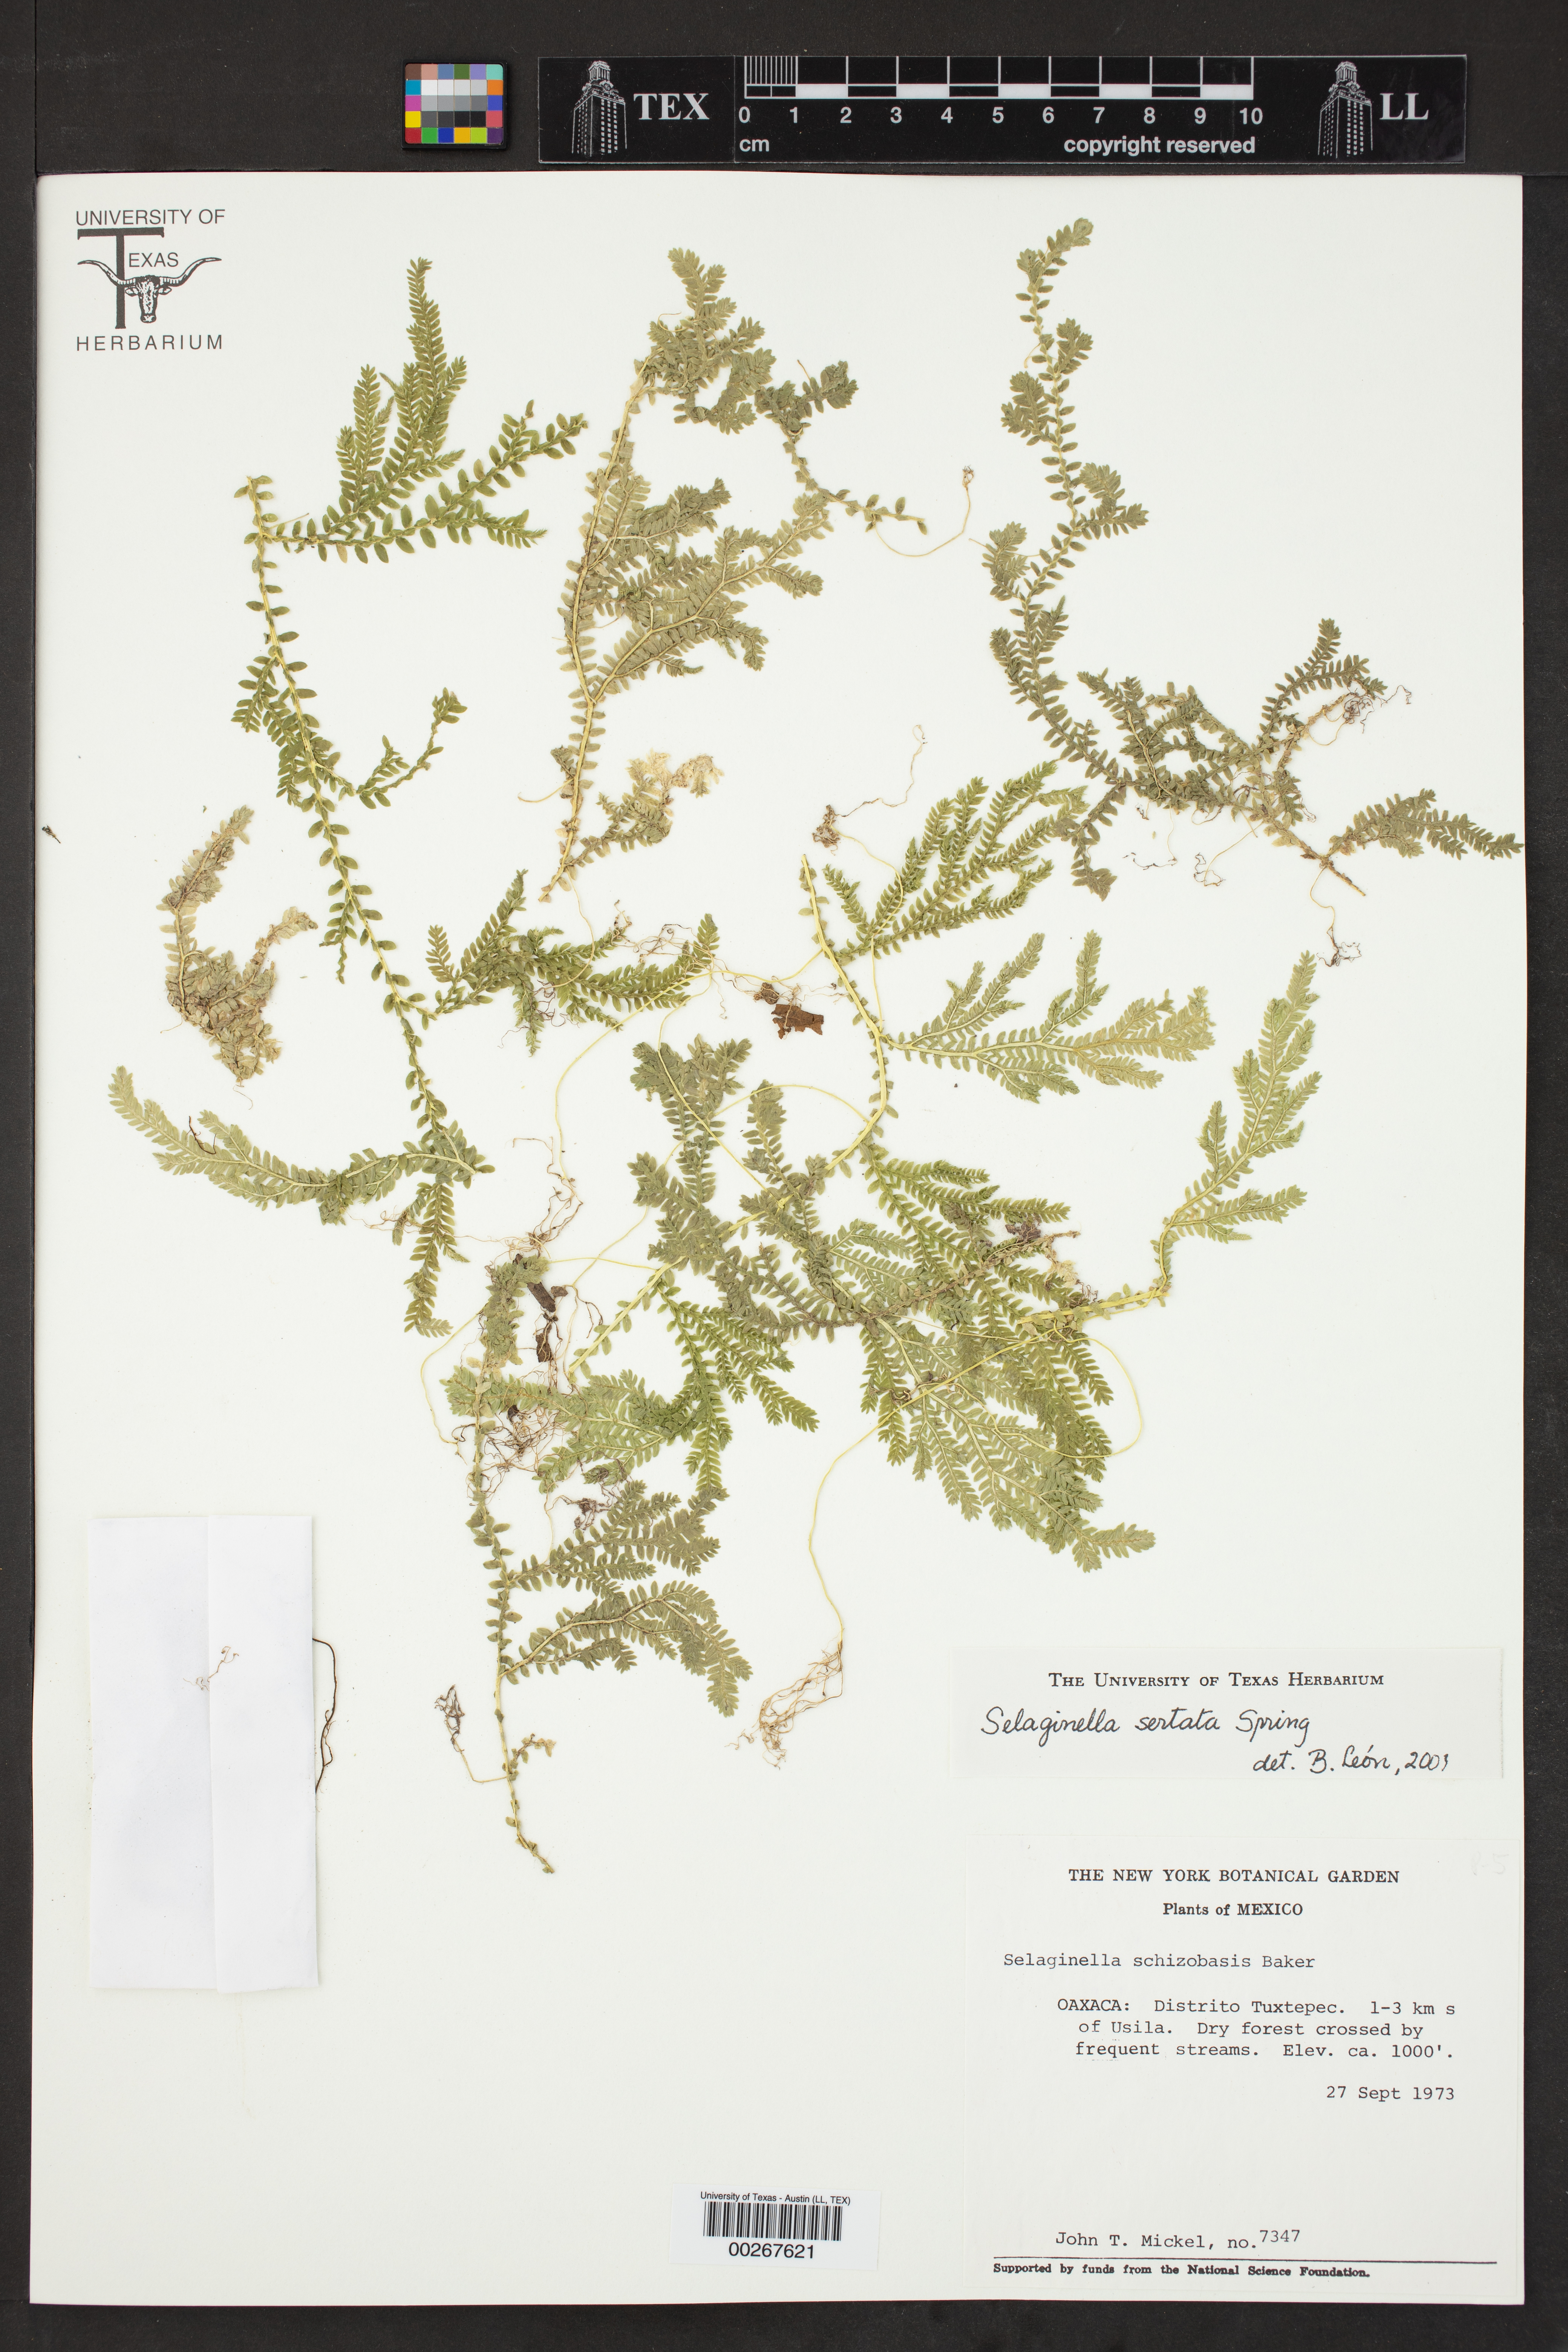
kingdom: Plantae
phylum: Tracheophyta
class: Lycopodiopsida
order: Selaginellales
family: Selaginellaceae
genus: Selaginella
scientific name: Selaginella sertata
